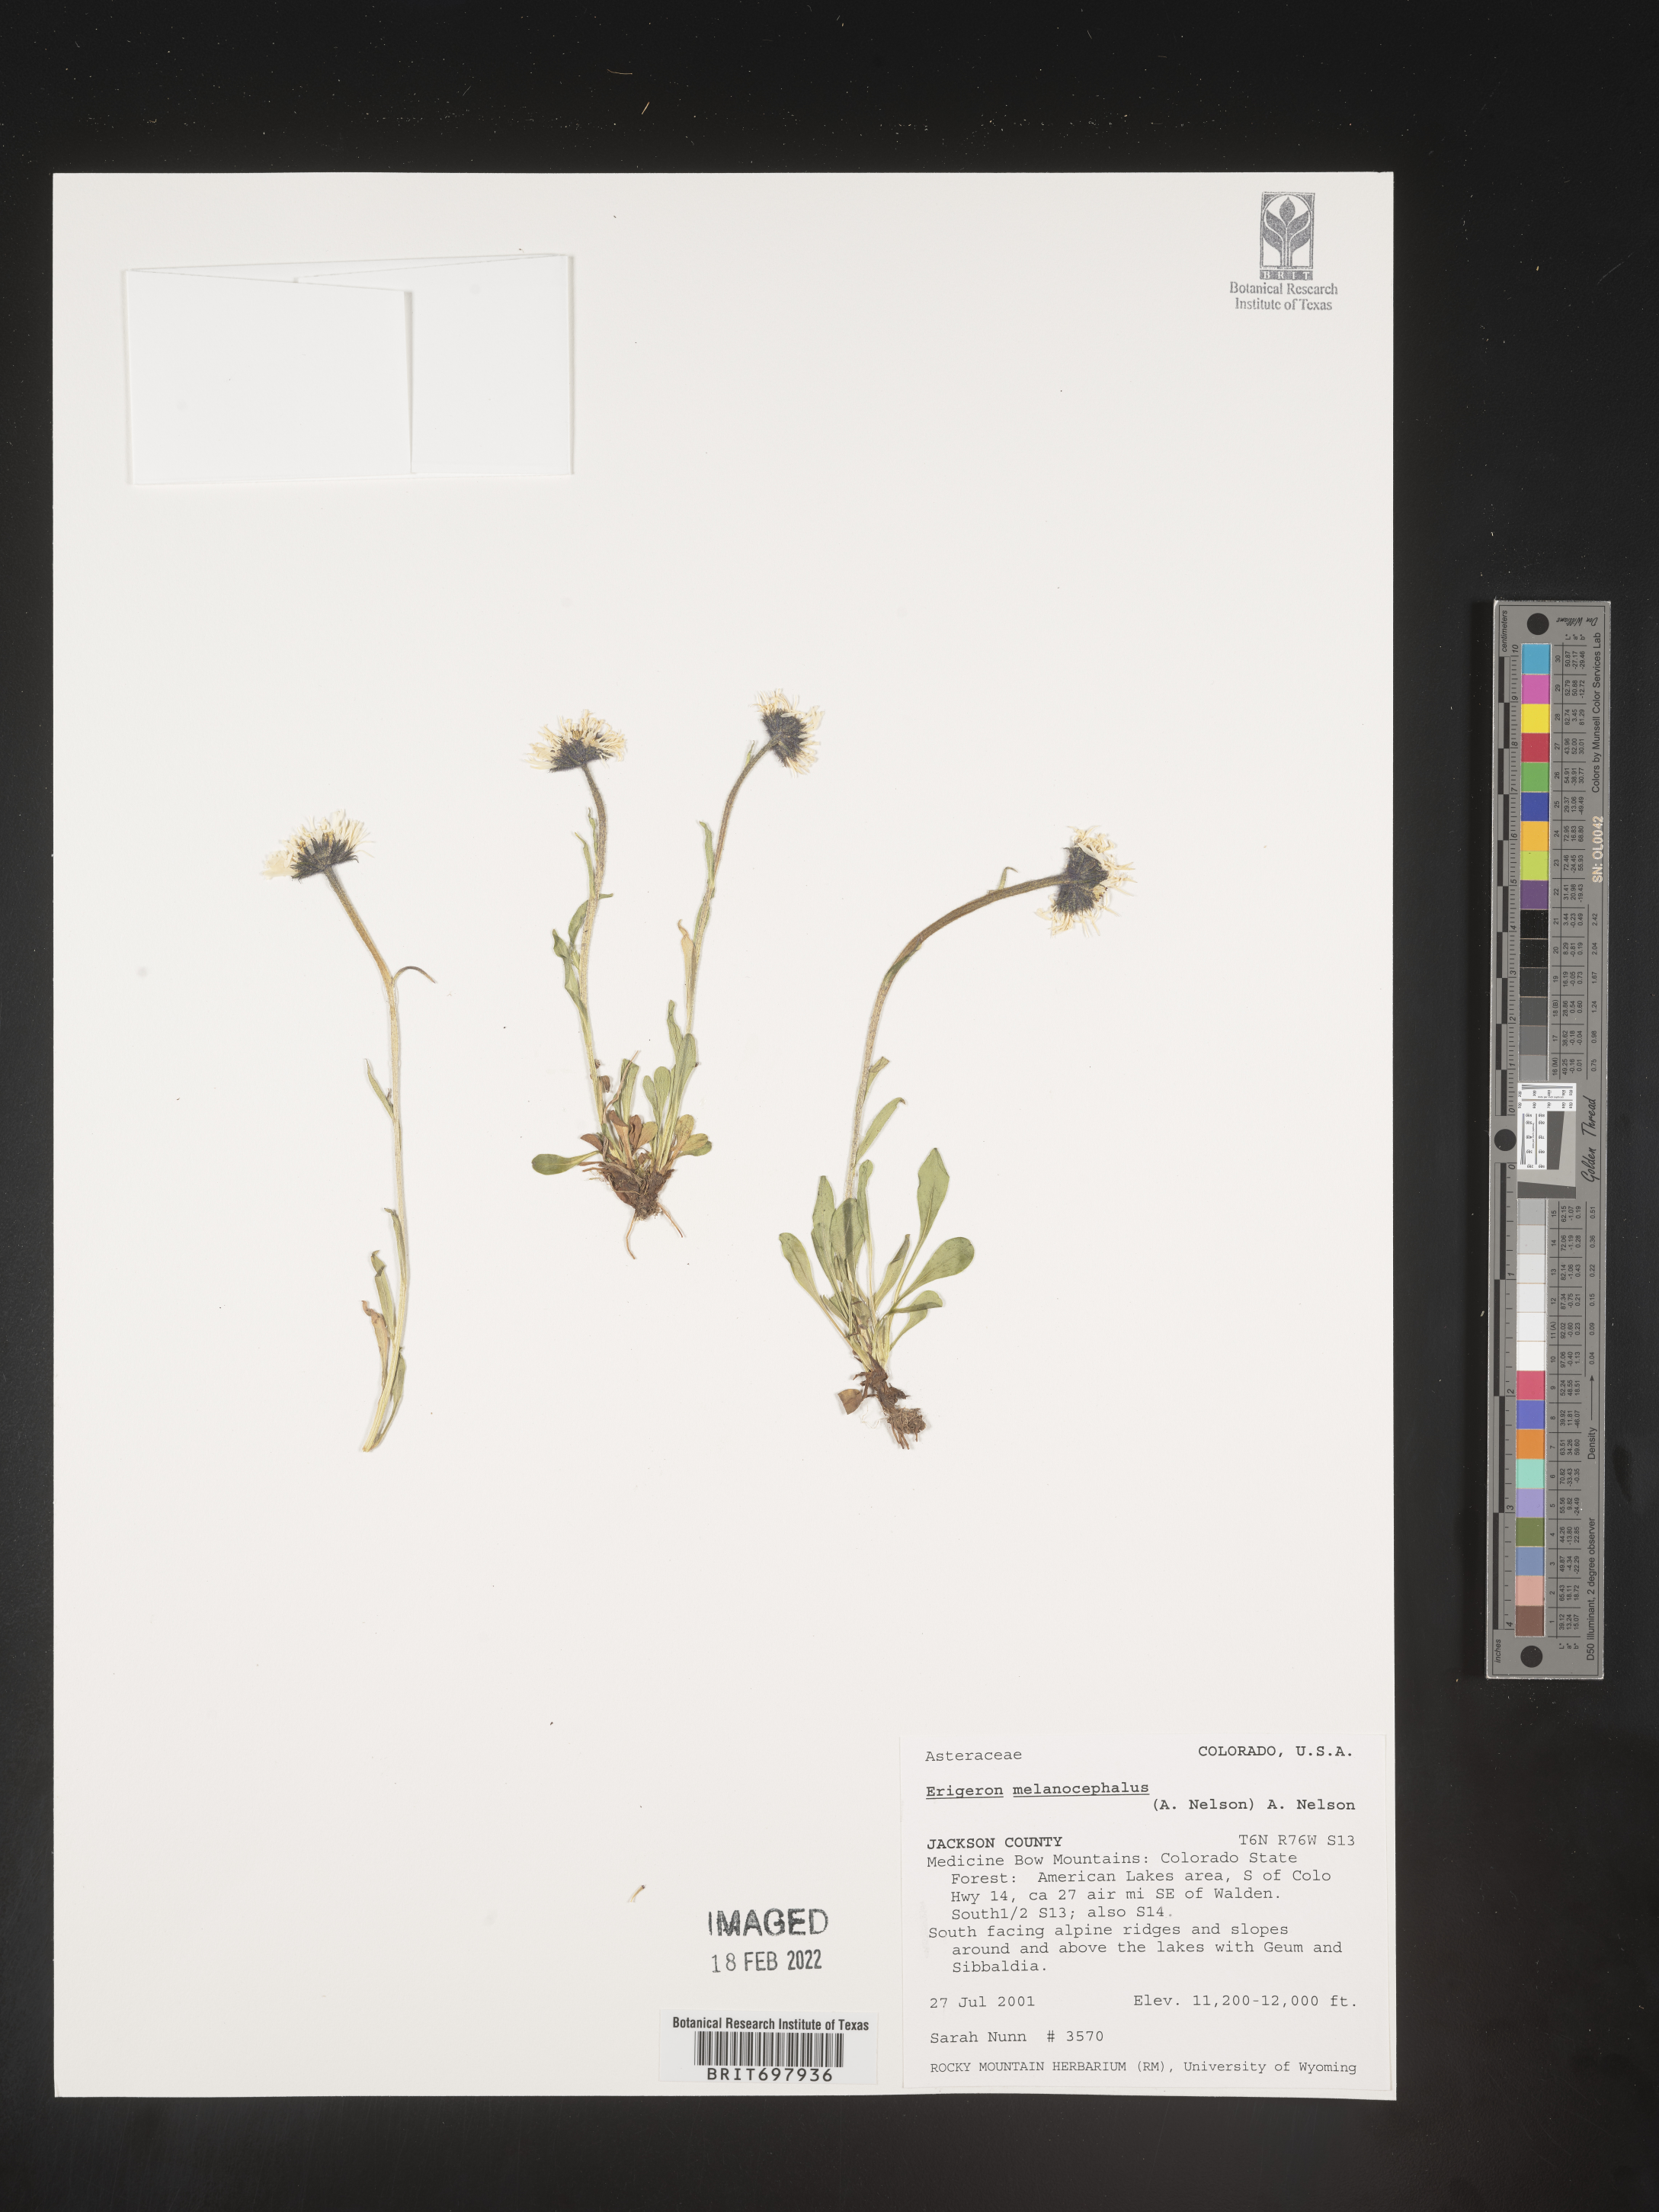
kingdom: Plantae
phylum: Tracheophyta
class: Magnoliopsida
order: Asterales
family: Asteraceae
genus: Erigeron
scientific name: Erigeron melanocephalus
